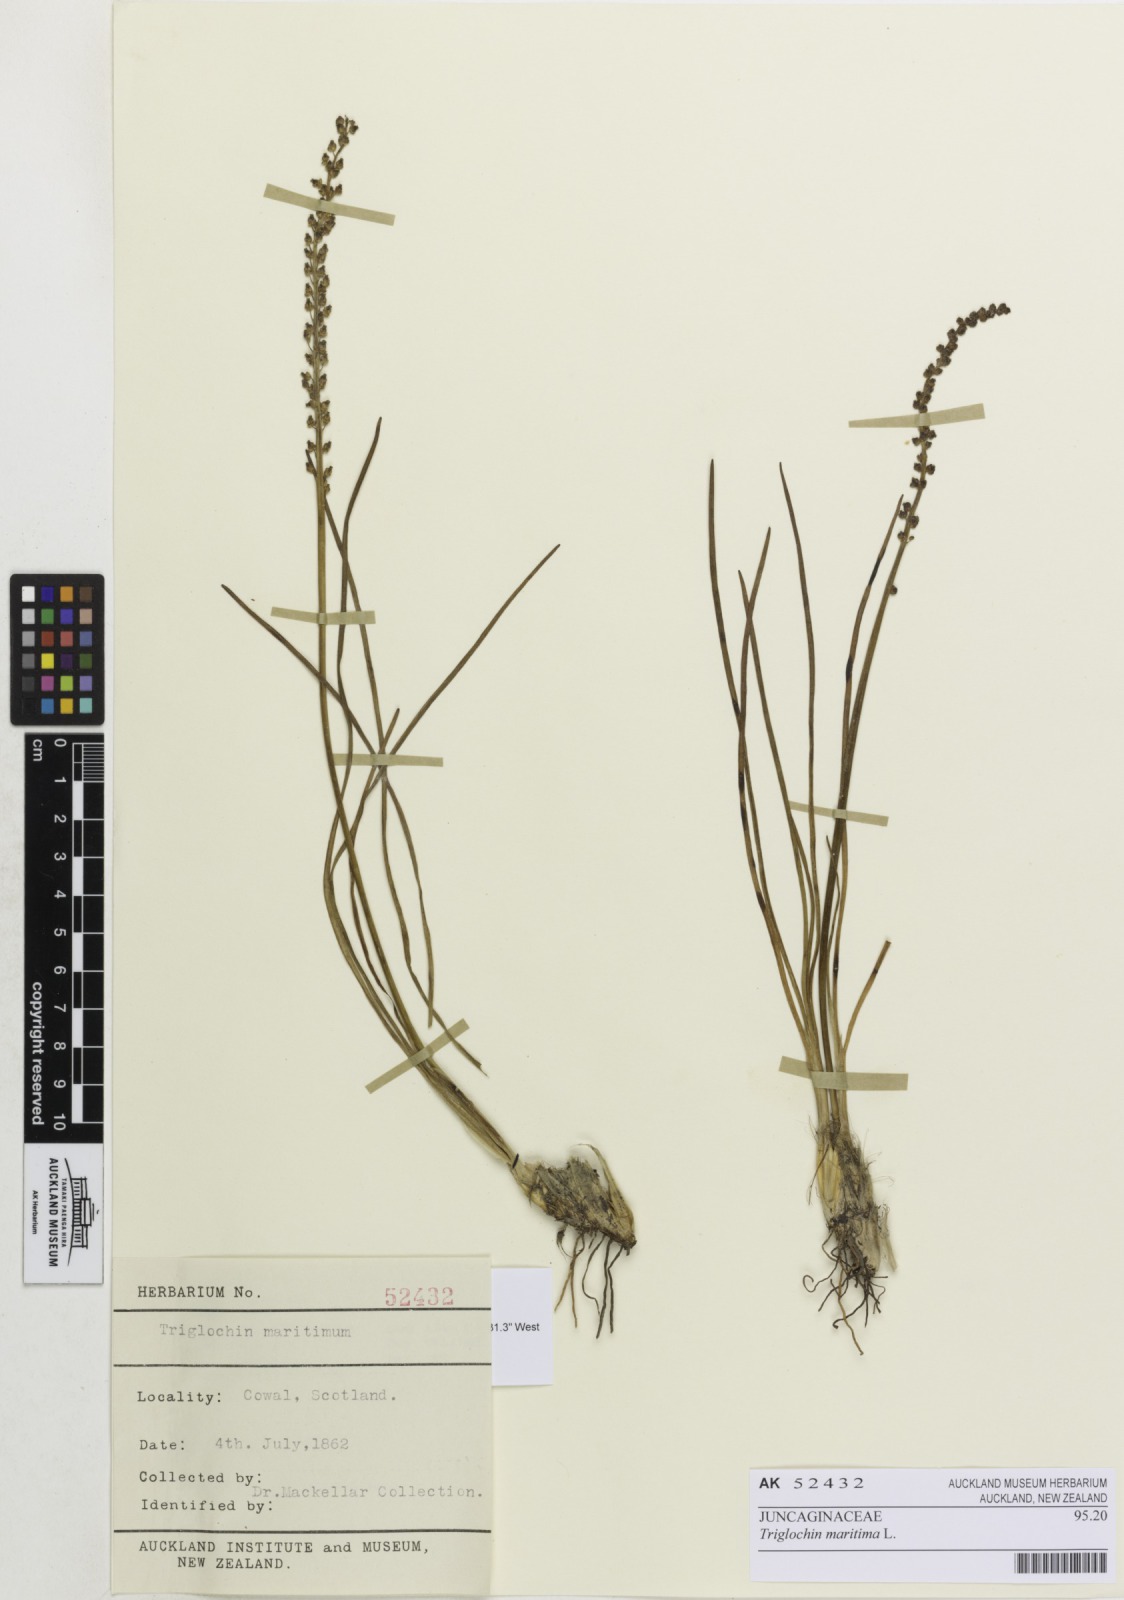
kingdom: Plantae
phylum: Tracheophyta
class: Liliopsida
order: Alismatales
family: Juncaginaceae
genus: Triglochin
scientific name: Triglochin maritima
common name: Sea arrowgrass
